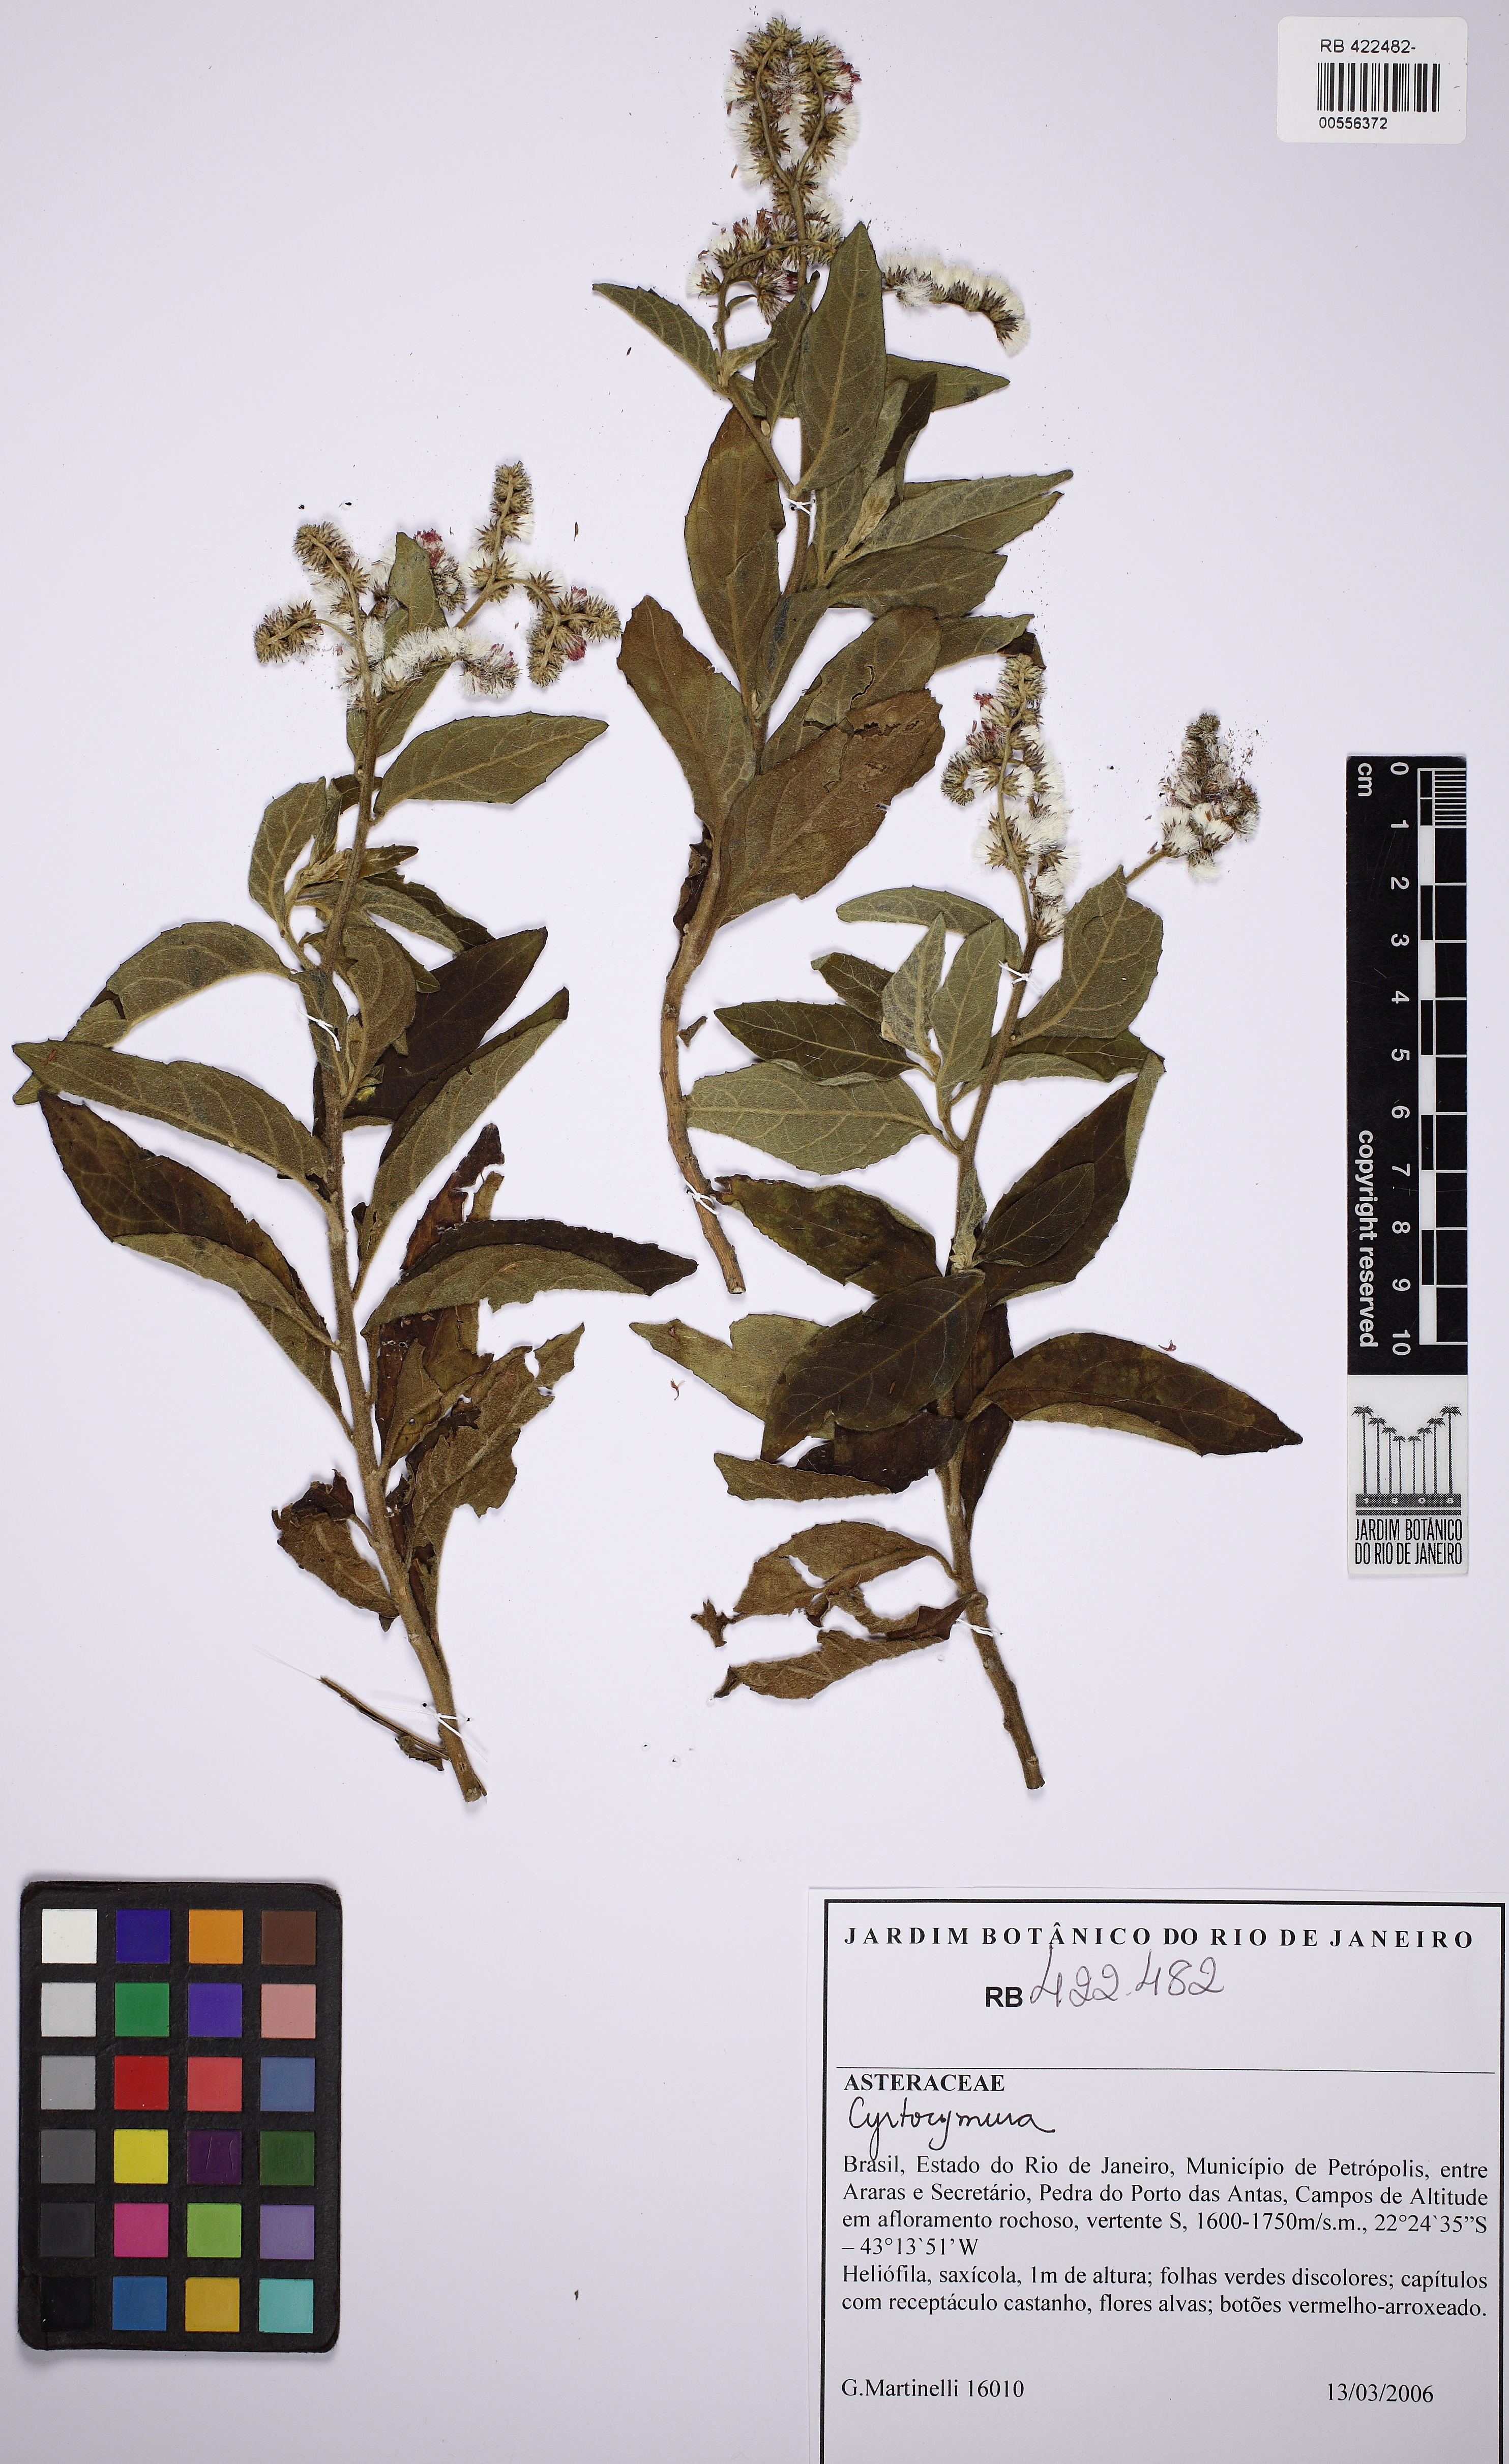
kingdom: Plantae
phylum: Tracheophyta
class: Magnoliopsida
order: Asterales
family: Asteraceae
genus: Cyrtocymura
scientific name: Cyrtocymura mattos-silvae
